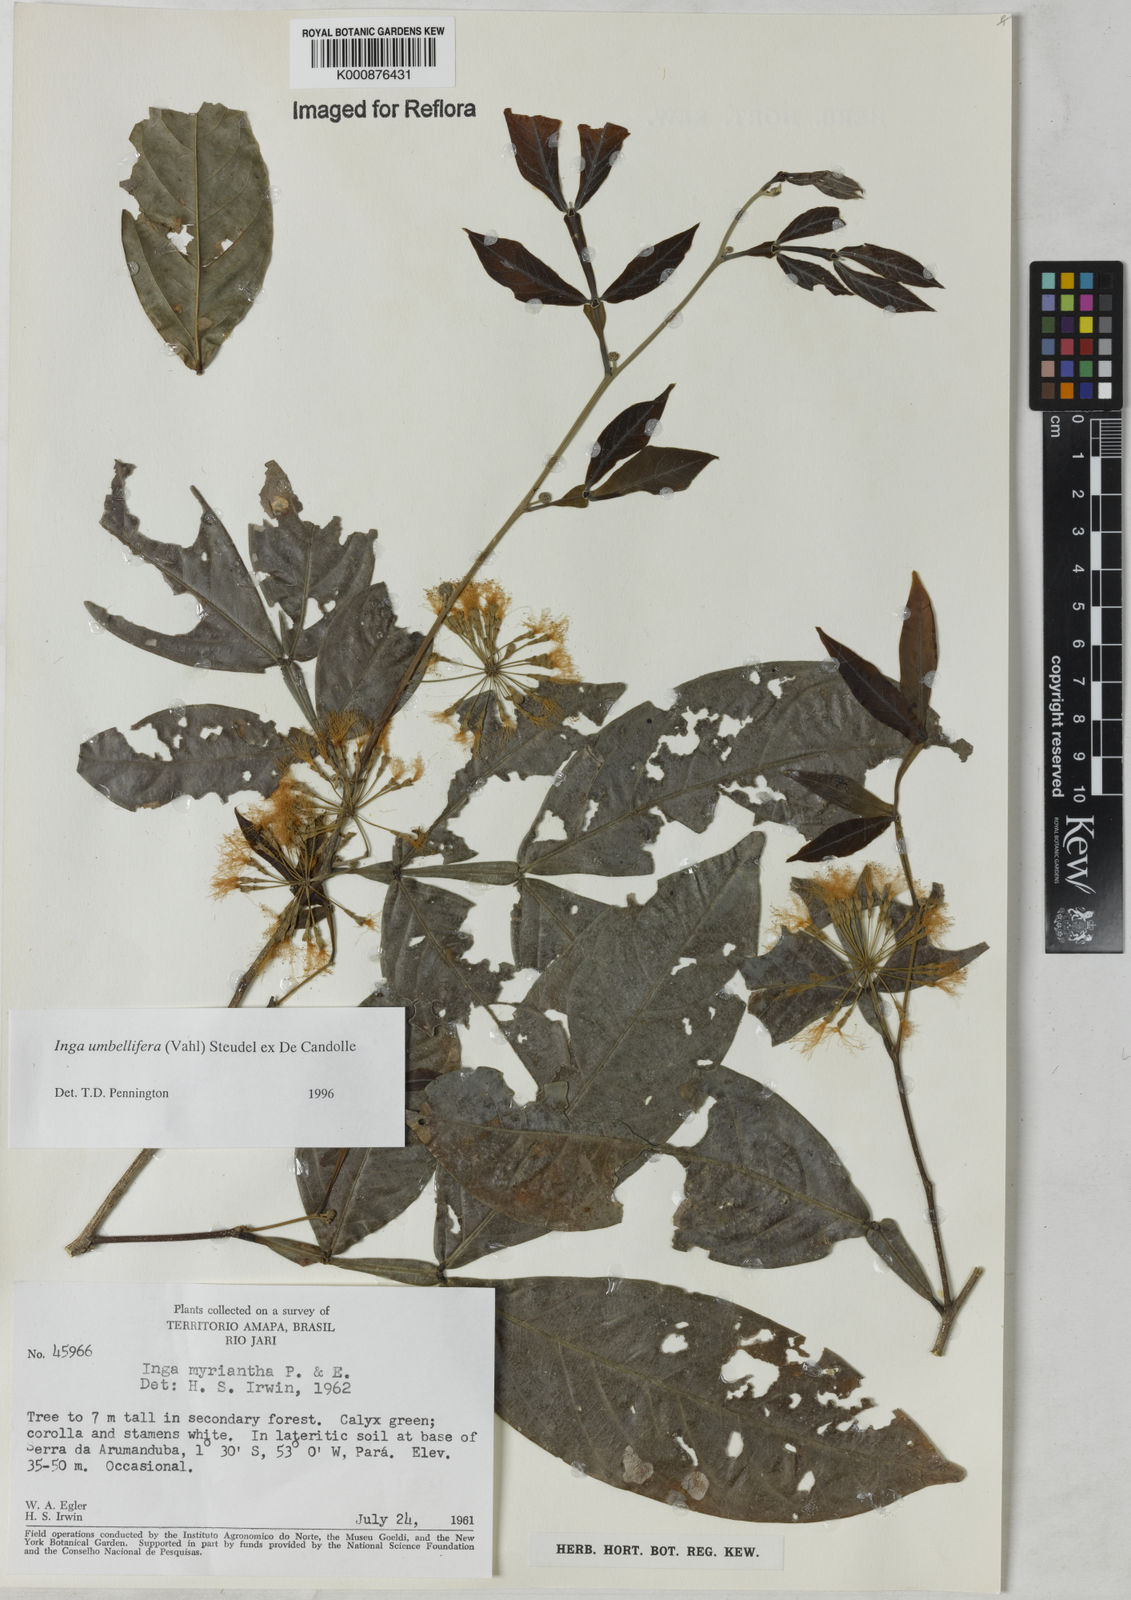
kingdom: Plantae
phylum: Tracheophyta
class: Magnoliopsida
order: Fabales
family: Fabaceae
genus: Inga
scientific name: Inga umbellifera
